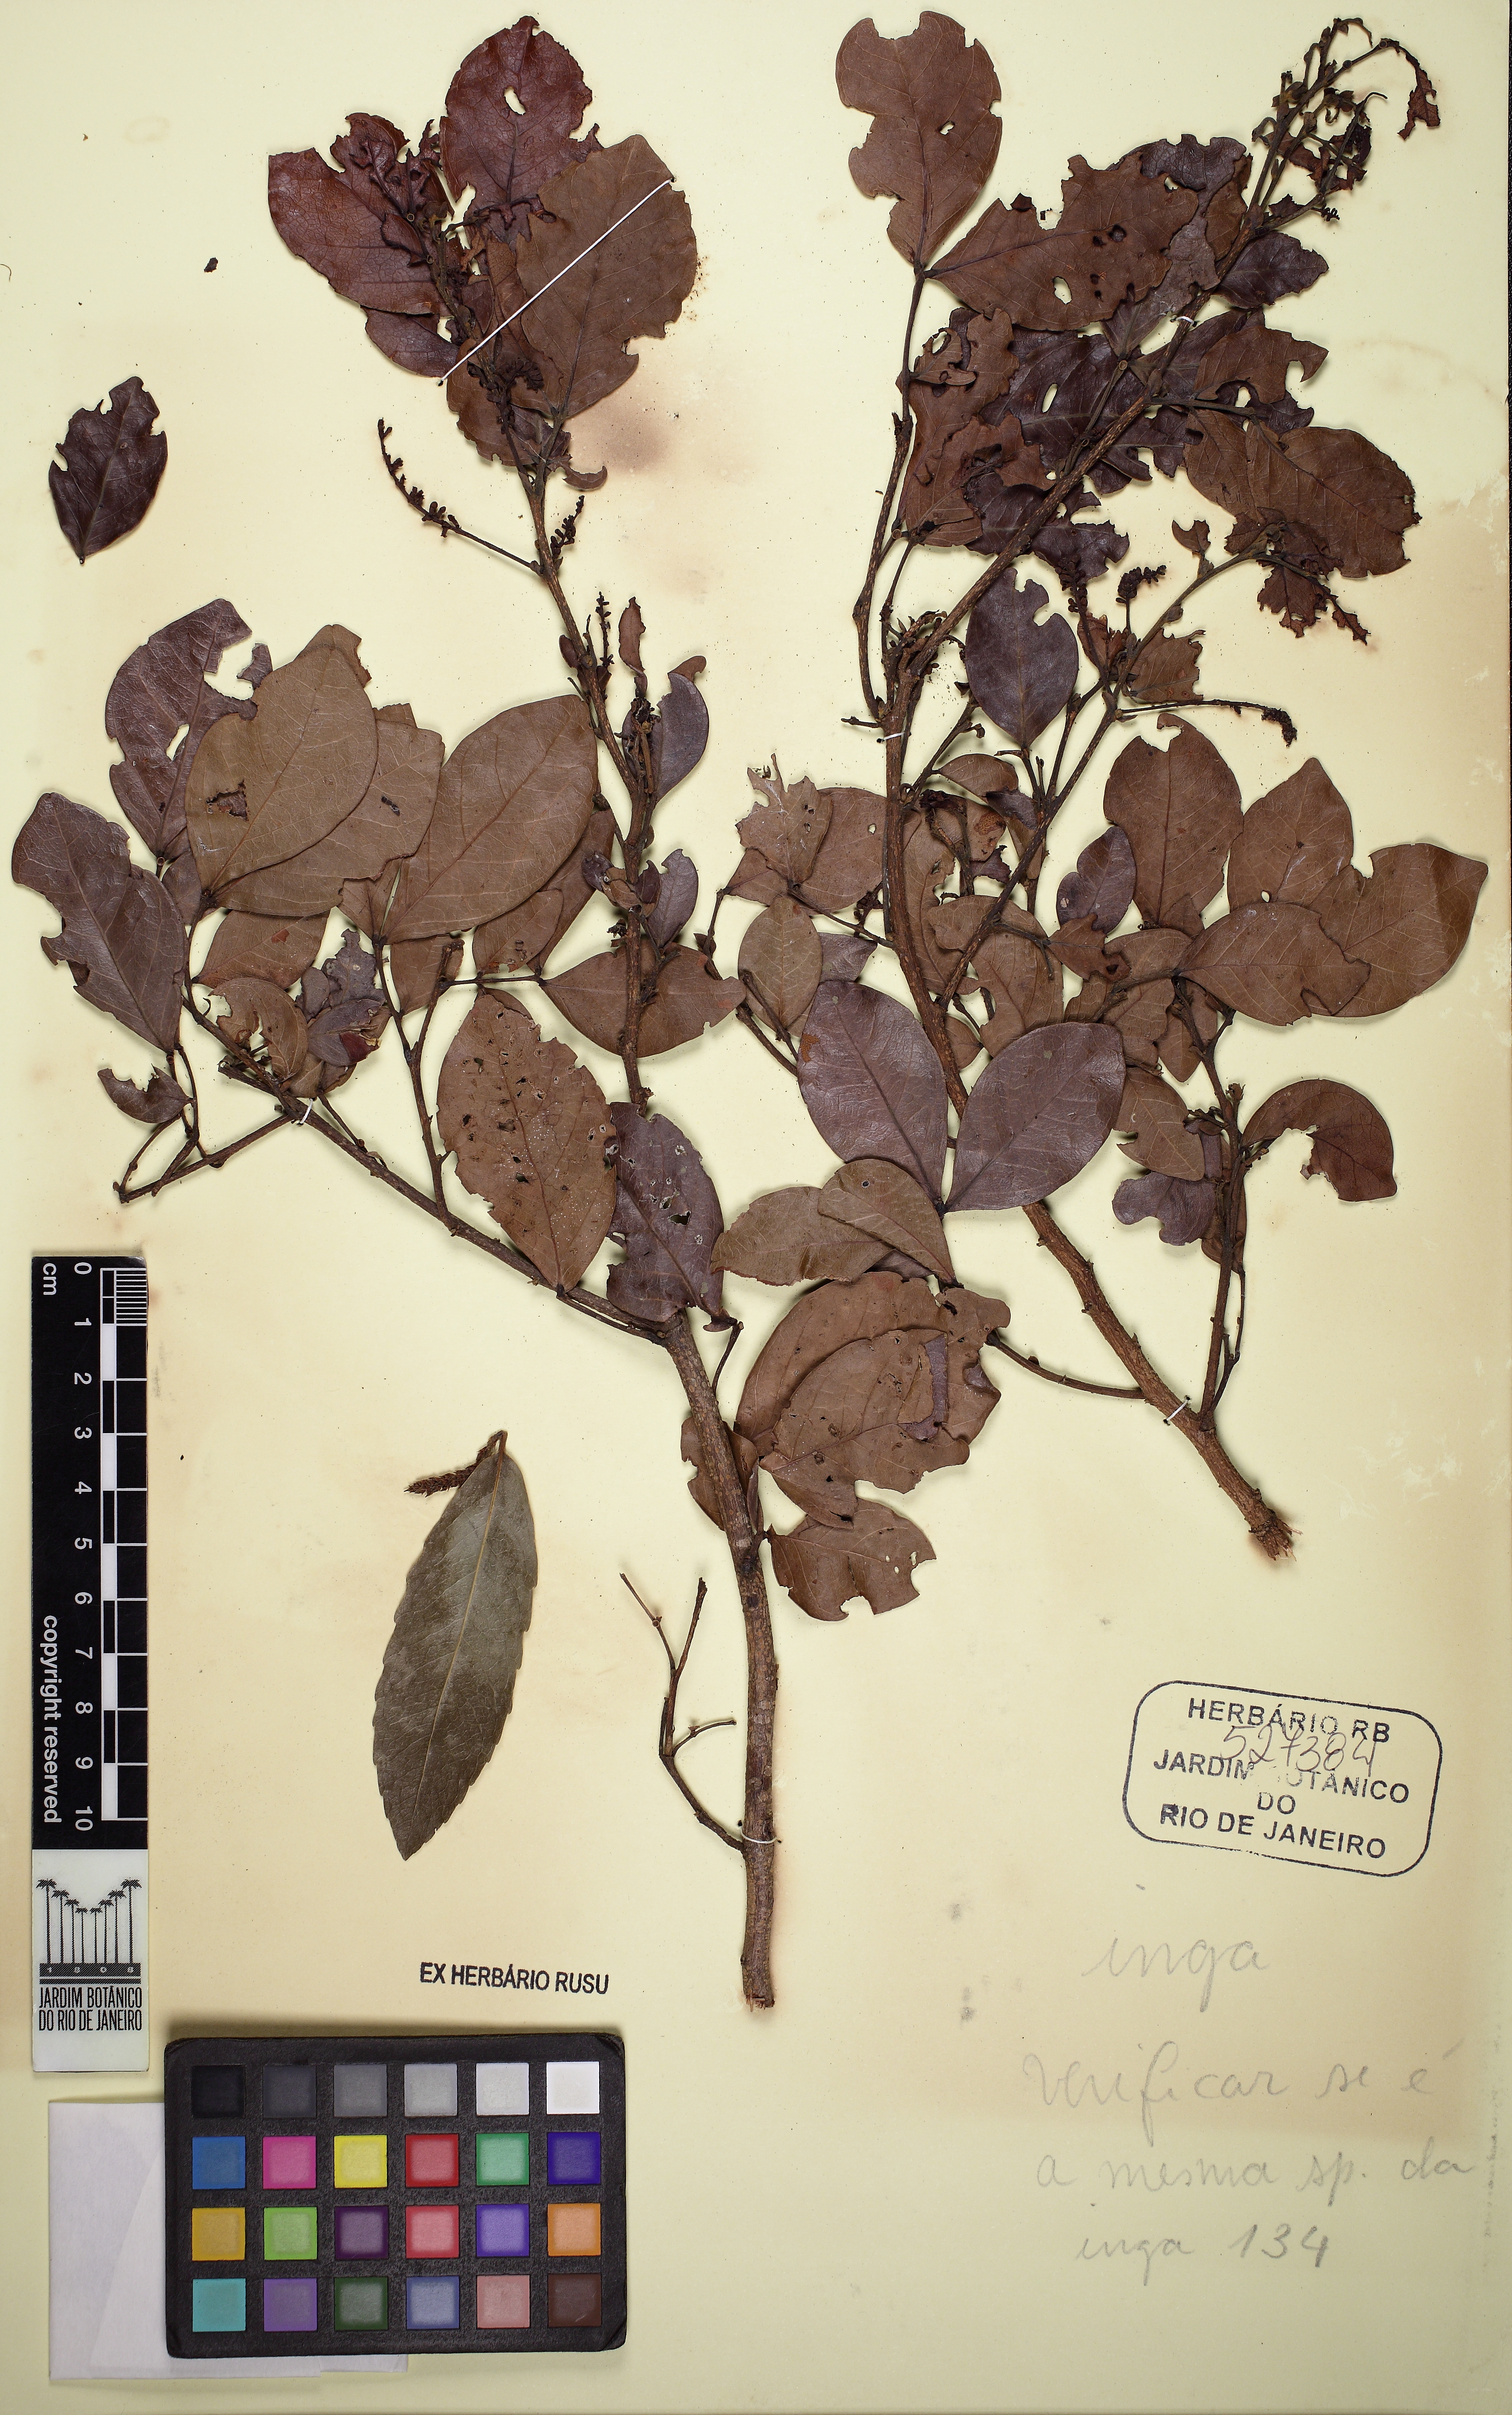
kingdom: Plantae
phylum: Tracheophyta
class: Magnoliopsida
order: Fabales
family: Fabaceae
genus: Inga
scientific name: Inga laurina
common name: Red wood
